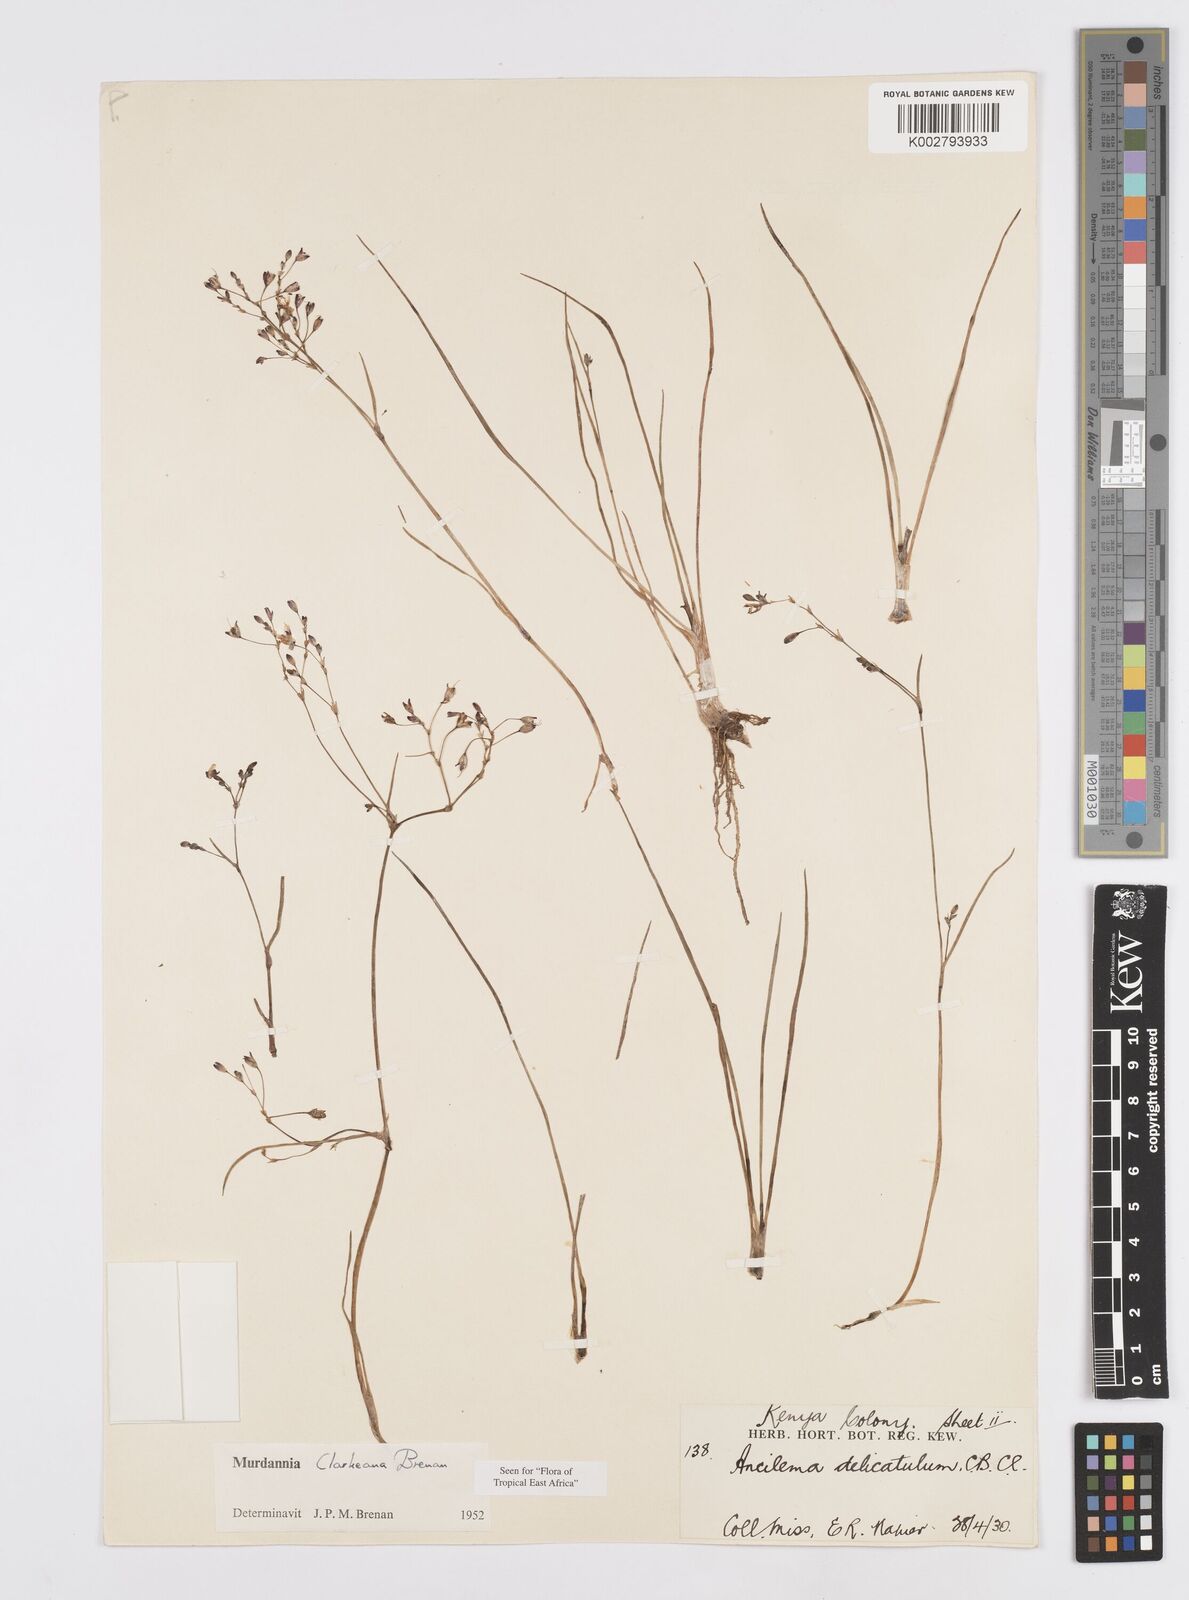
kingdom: Plantae
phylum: Tracheophyta
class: Liliopsida
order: Commelinales
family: Commelinaceae
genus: Murdannia
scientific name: Murdannia clarkeana
